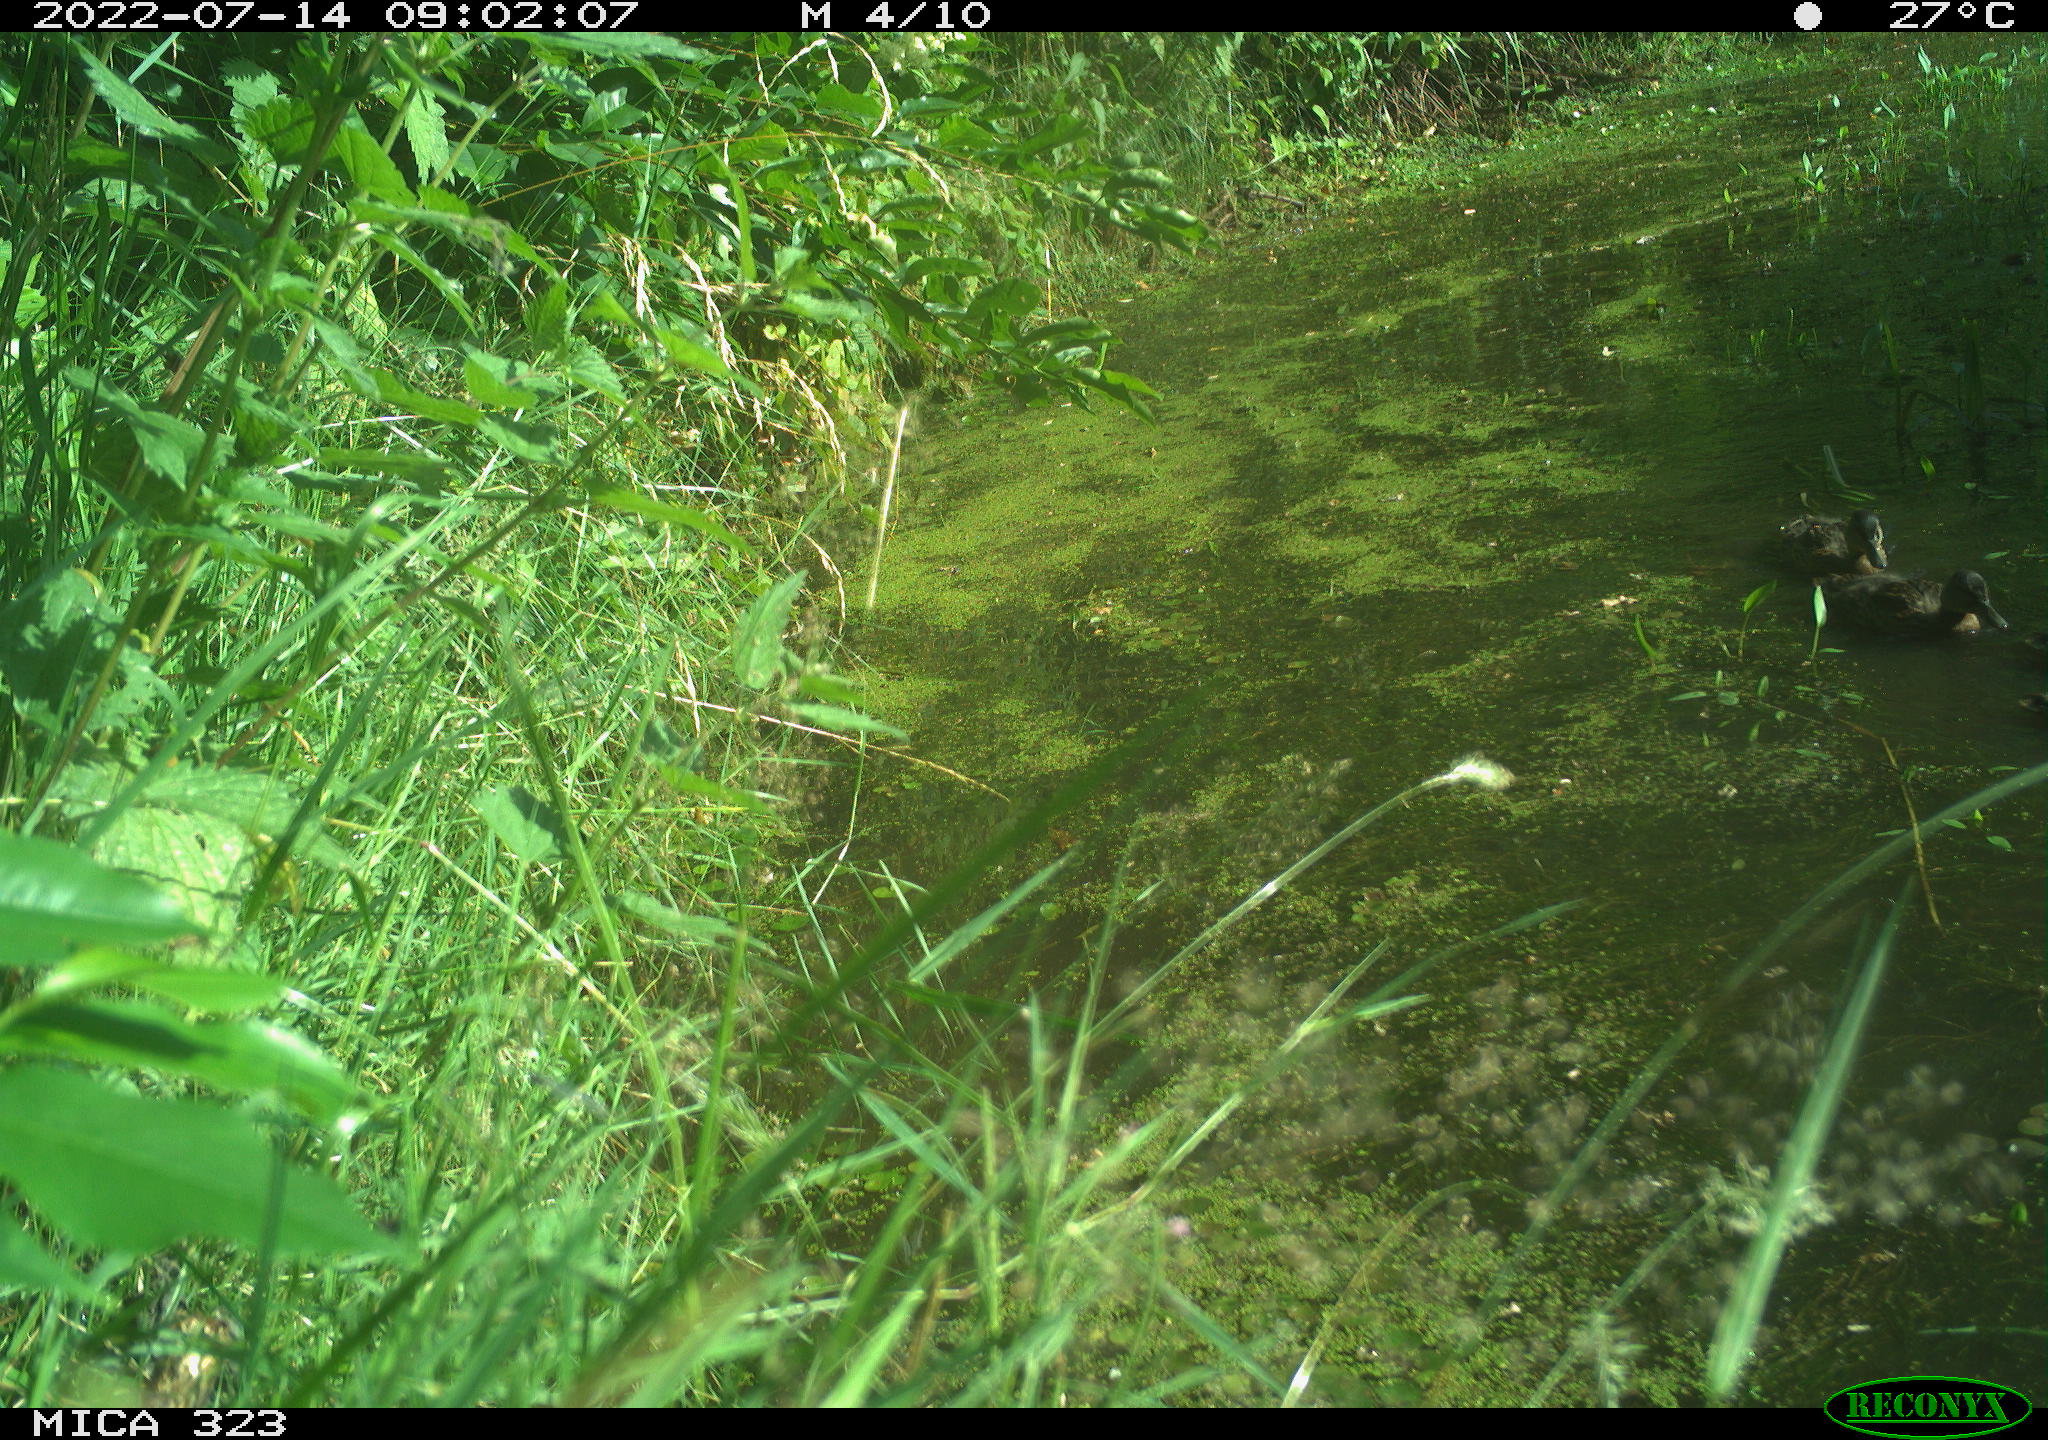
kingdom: Animalia
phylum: Chordata
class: Aves
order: Anseriformes
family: Anatidae
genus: Anas
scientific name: Anas platyrhynchos
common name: Mallard
